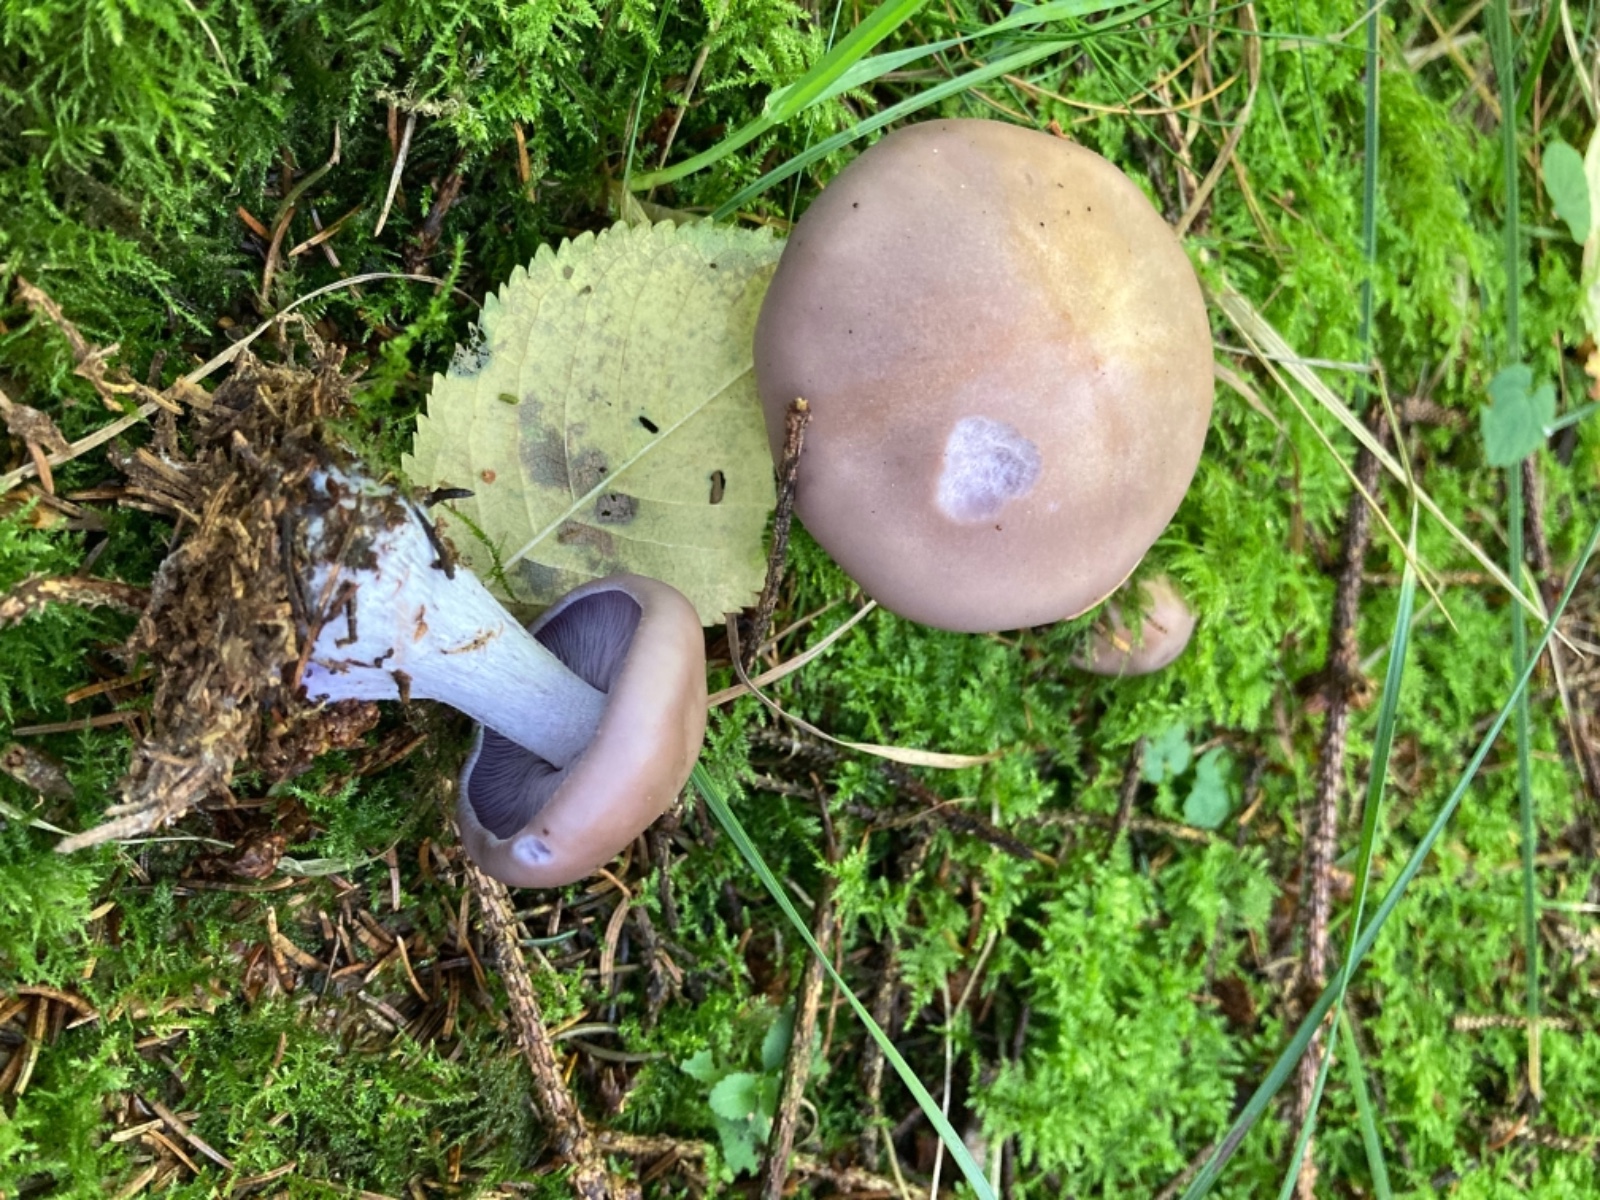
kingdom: Fungi
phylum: Basidiomycota
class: Agaricomycetes
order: Agaricales
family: Tricholomataceae
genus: Lepista
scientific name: Lepista nuda
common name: violet hekseringshat
